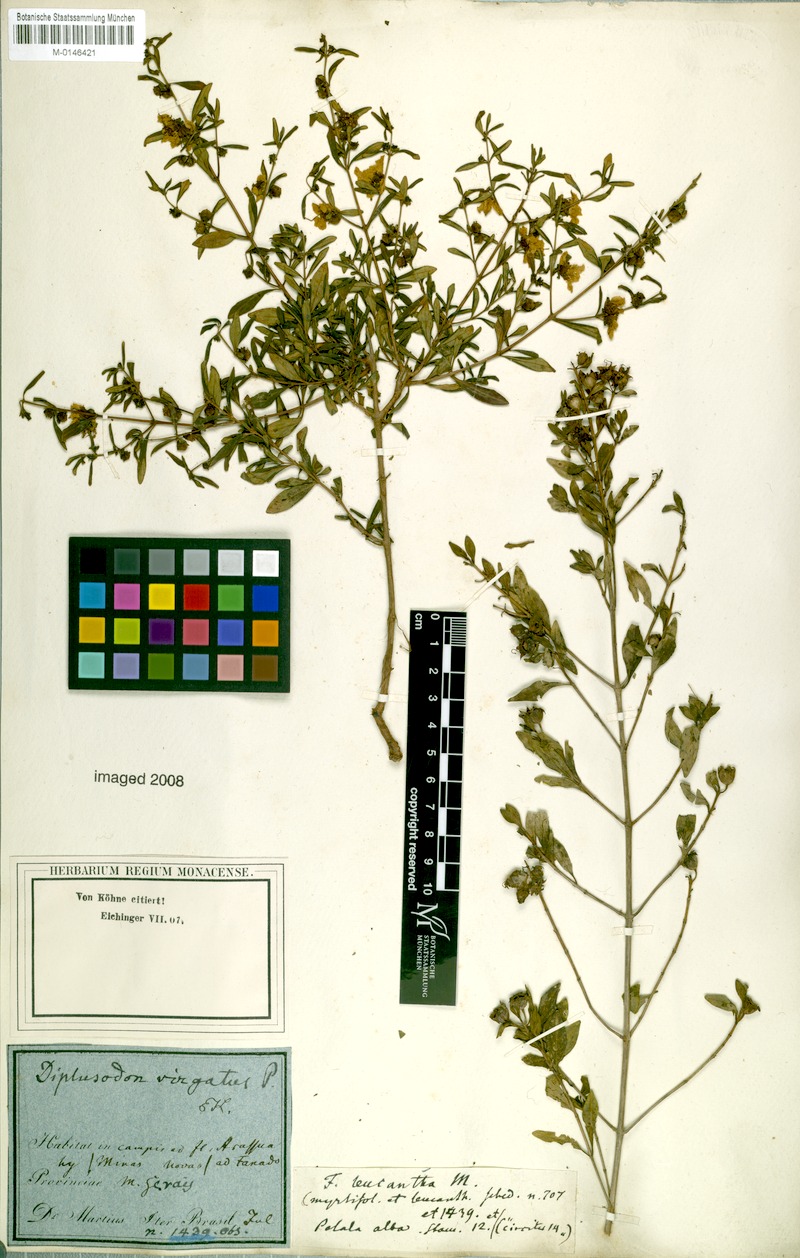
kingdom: Plantae
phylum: Tracheophyta
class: Magnoliopsida
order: Myrtales
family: Lythraceae
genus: Diplusodon
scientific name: Diplusodon virgatus
